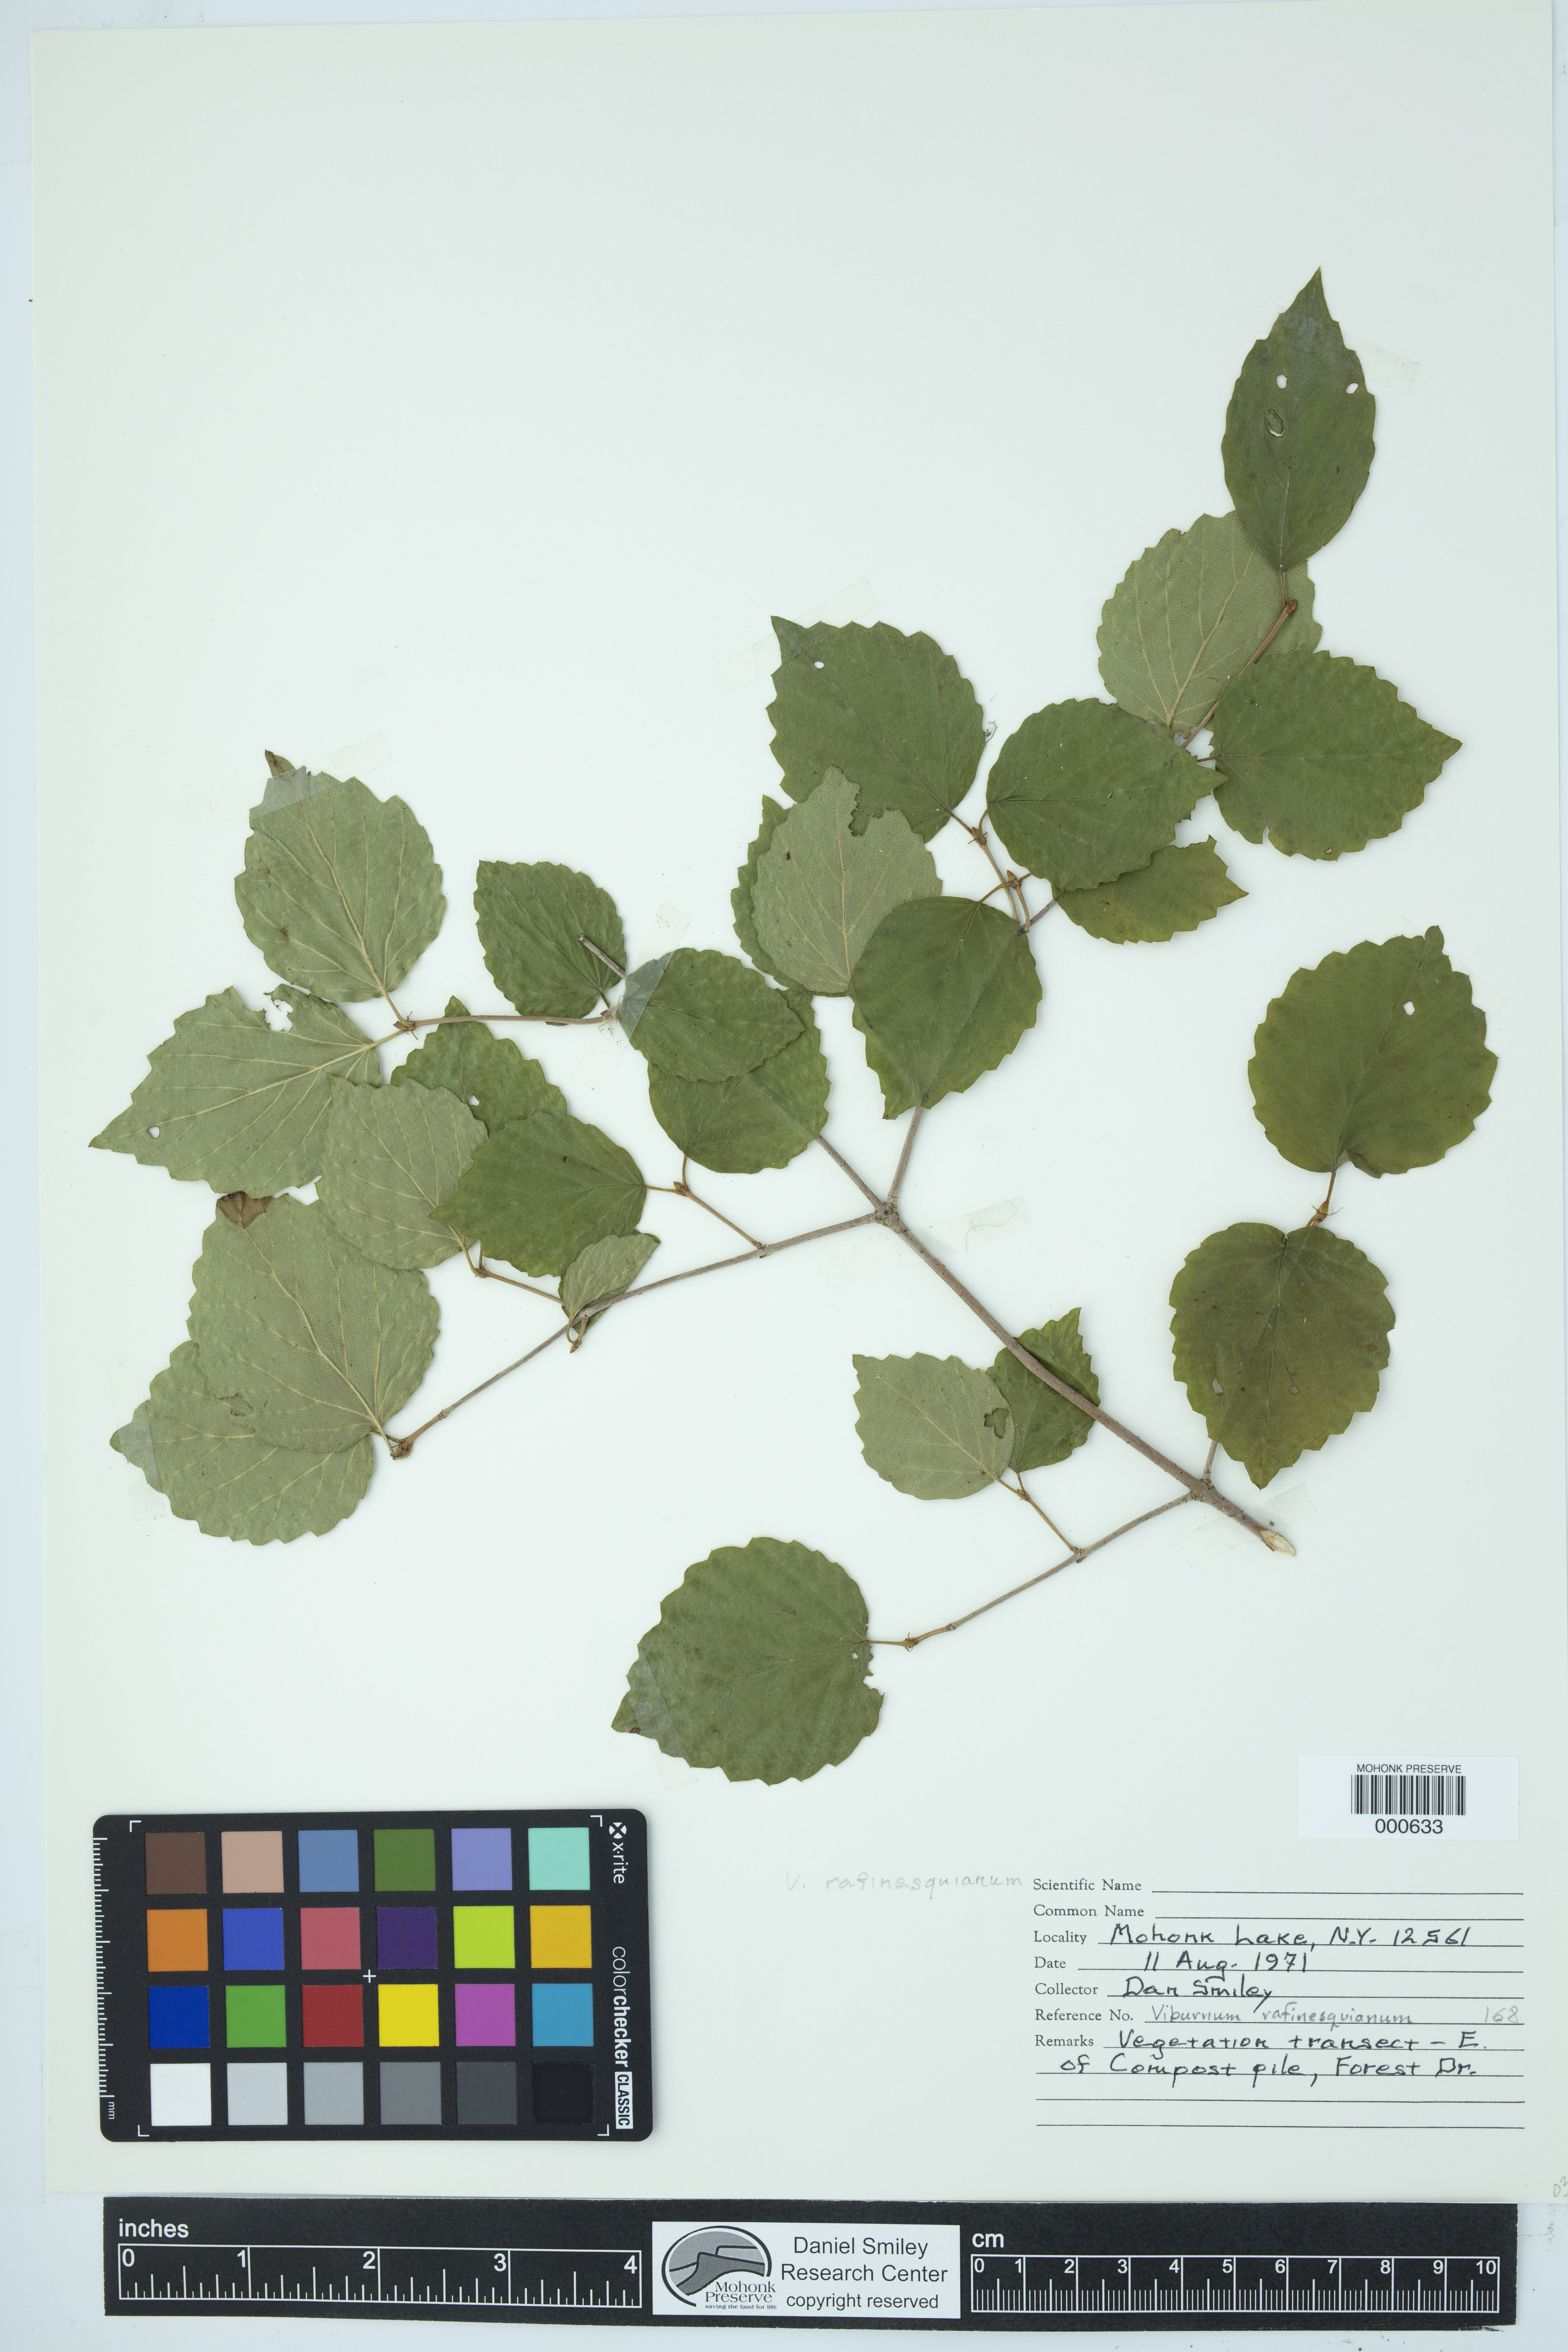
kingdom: Plantae
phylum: Tracheophyta
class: Magnoliopsida
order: Dipsacales
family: Viburnaceae
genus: Viburnum
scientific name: Viburnum rafinesquianum
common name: Downy arrow-wood
